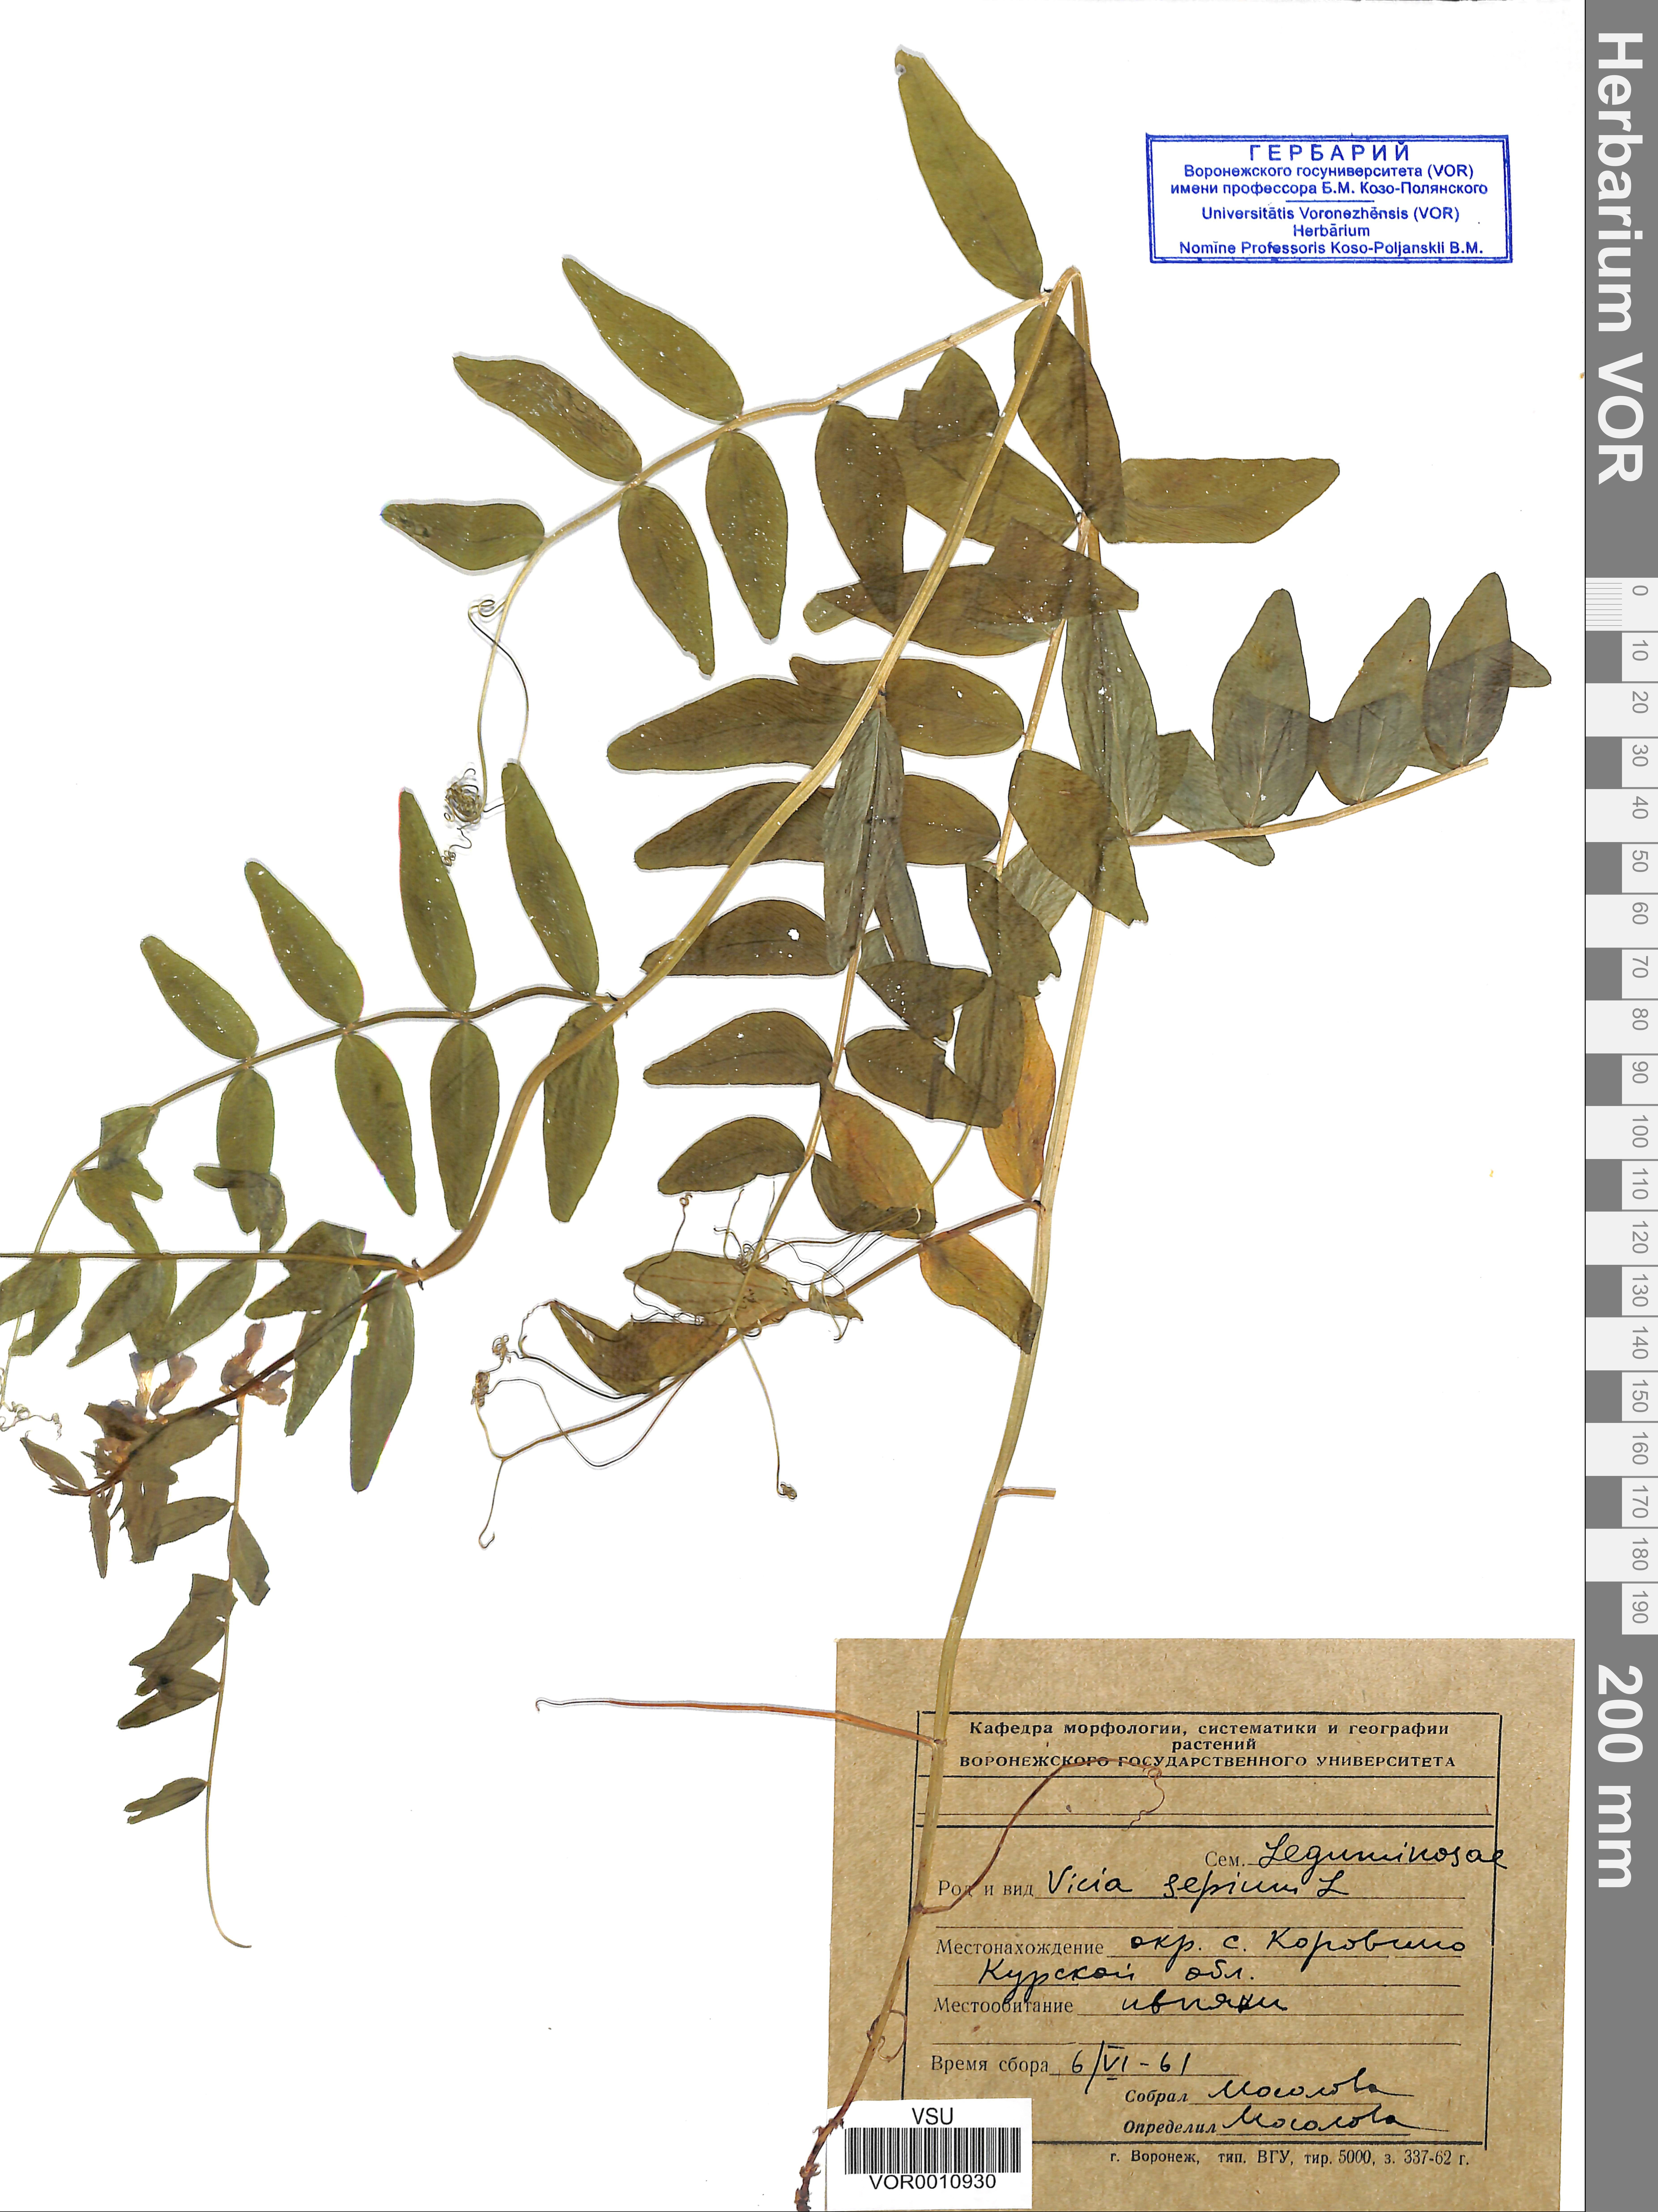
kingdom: Plantae
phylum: Tracheophyta
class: Magnoliopsida
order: Fabales
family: Fabaceae
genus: Vicia
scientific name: Vicia sepium
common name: Bush vetch
